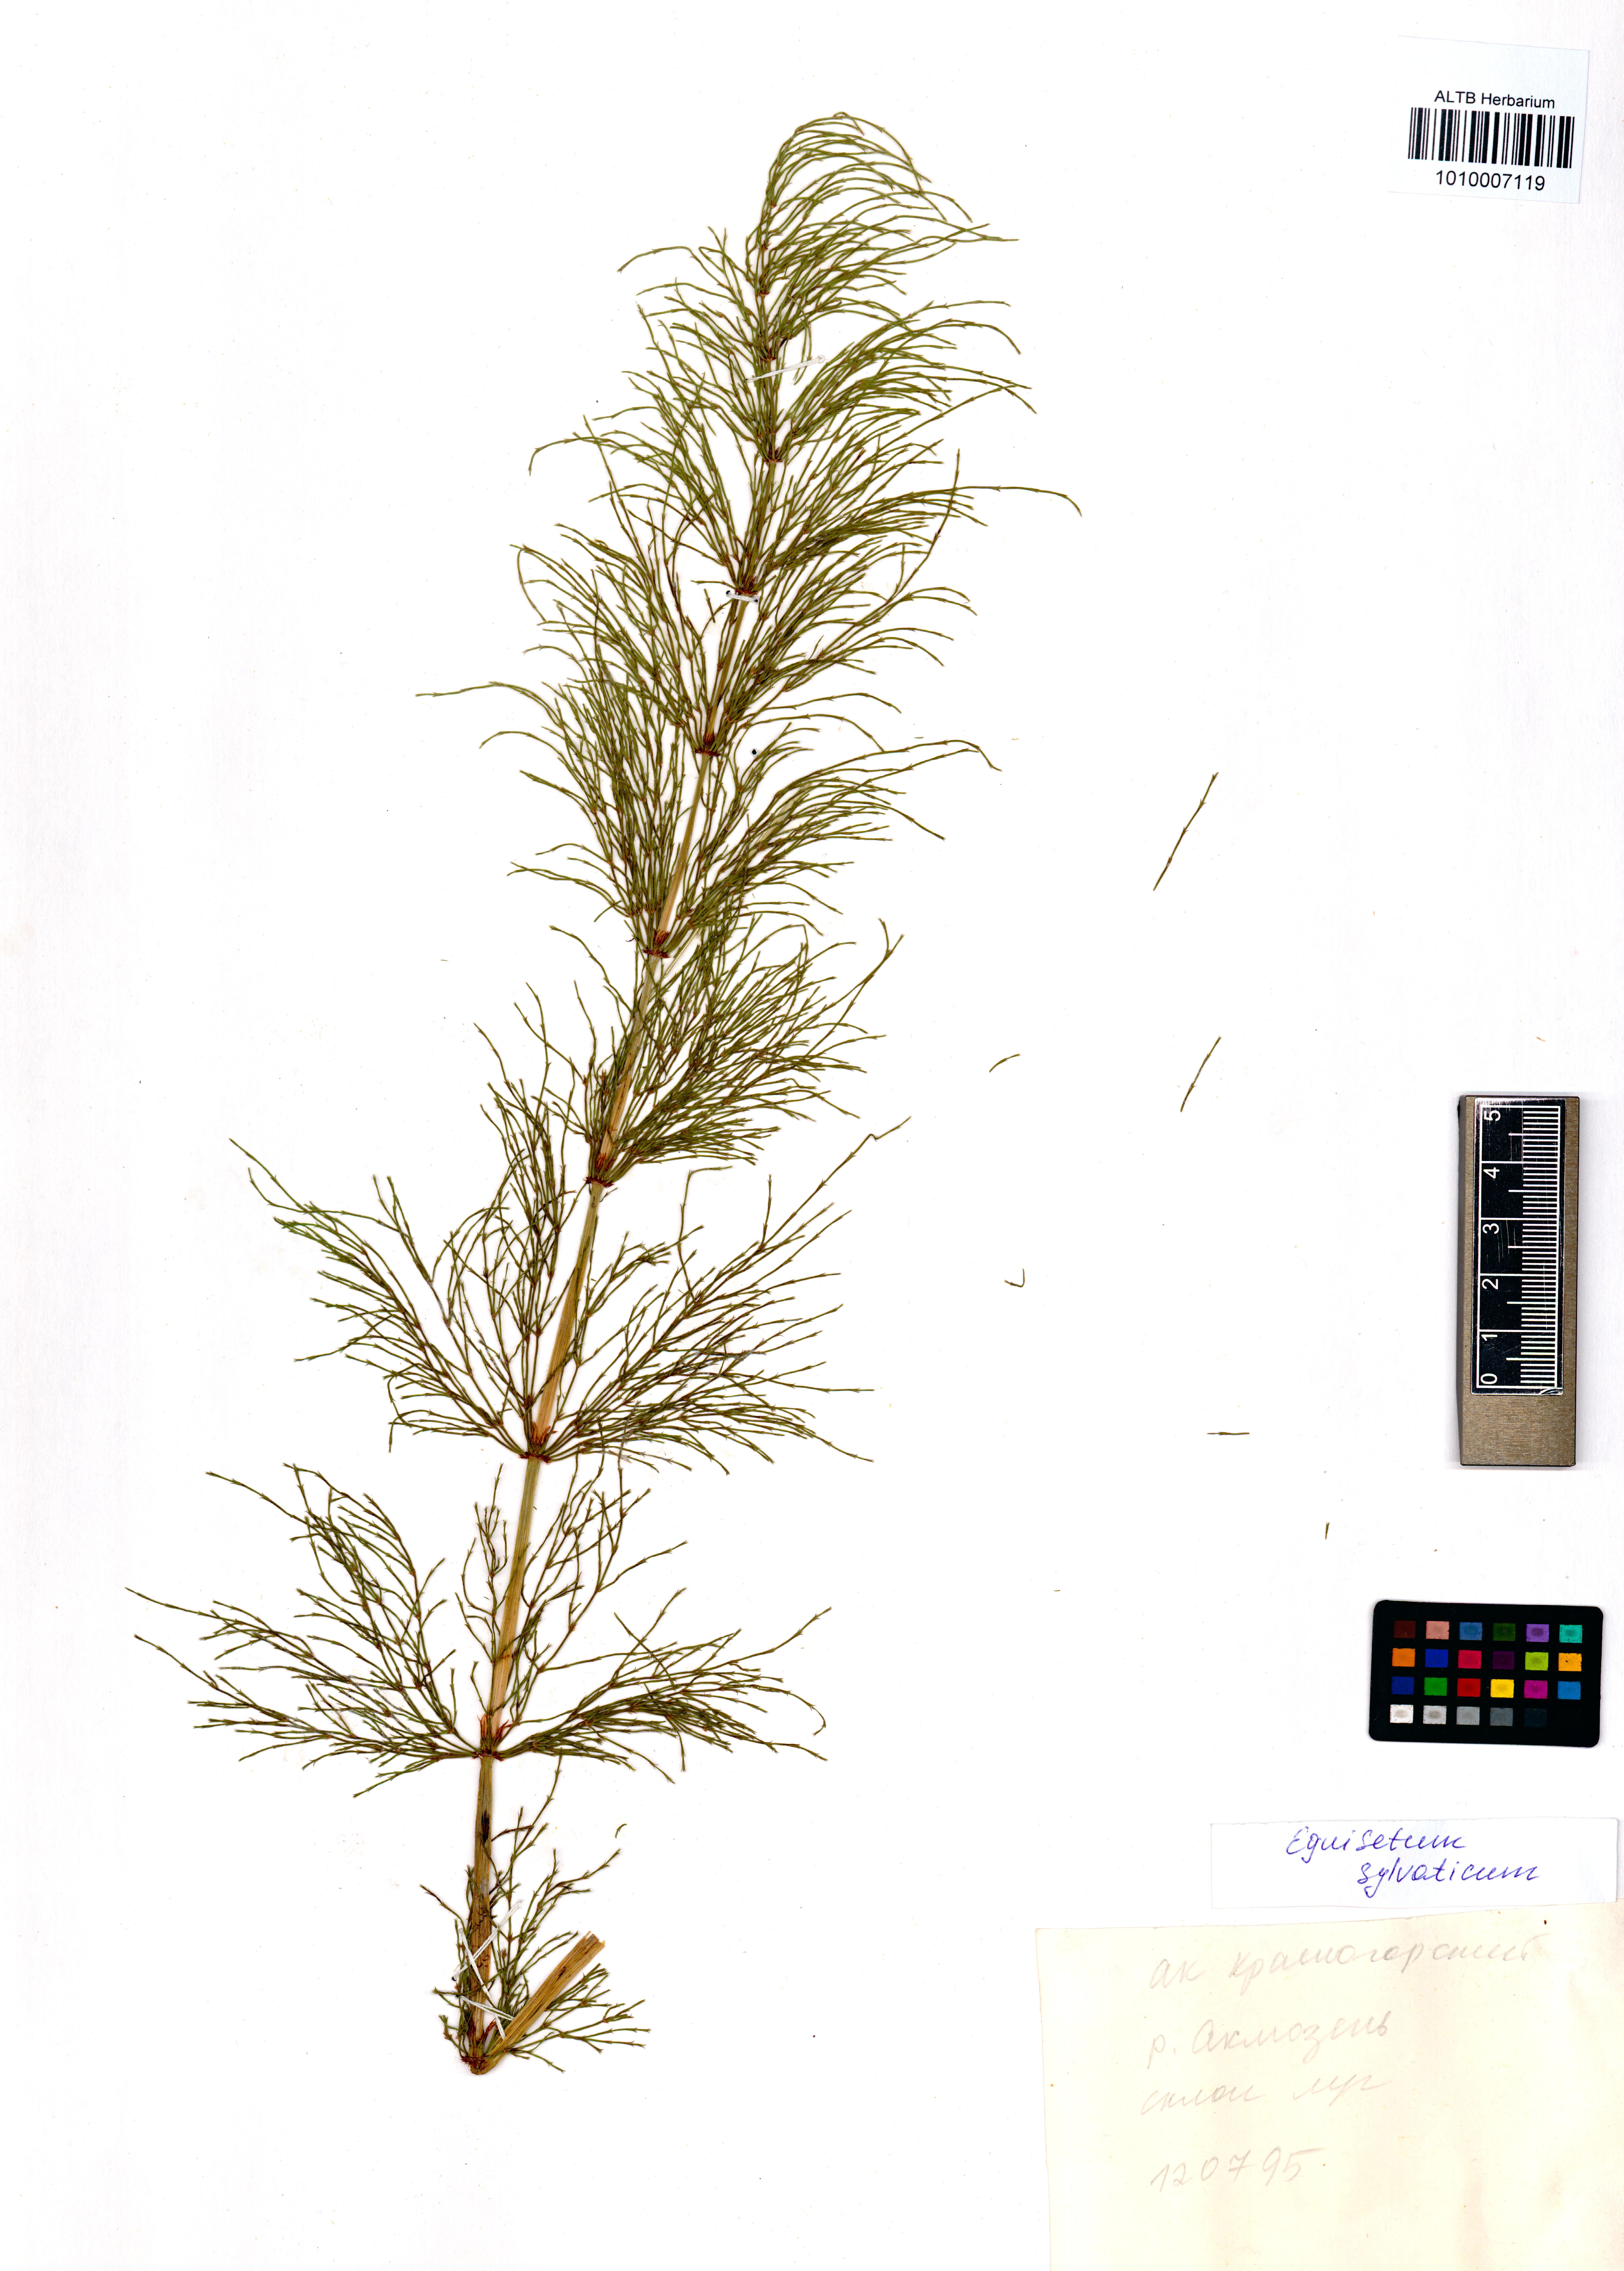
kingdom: Plantae
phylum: Tracheophyta
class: Polypodiopsida
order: Equisetales
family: Equisetaceae
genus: Equisetum
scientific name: Equisetum sylvaticum
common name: Wood horsetail
